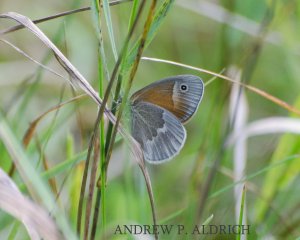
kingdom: Animalia
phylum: Arthropoda
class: Insecta
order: Lepidoptera
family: Nymphalidae
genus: Coenonympha
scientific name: Coenonympha tullia
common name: Large Heath
